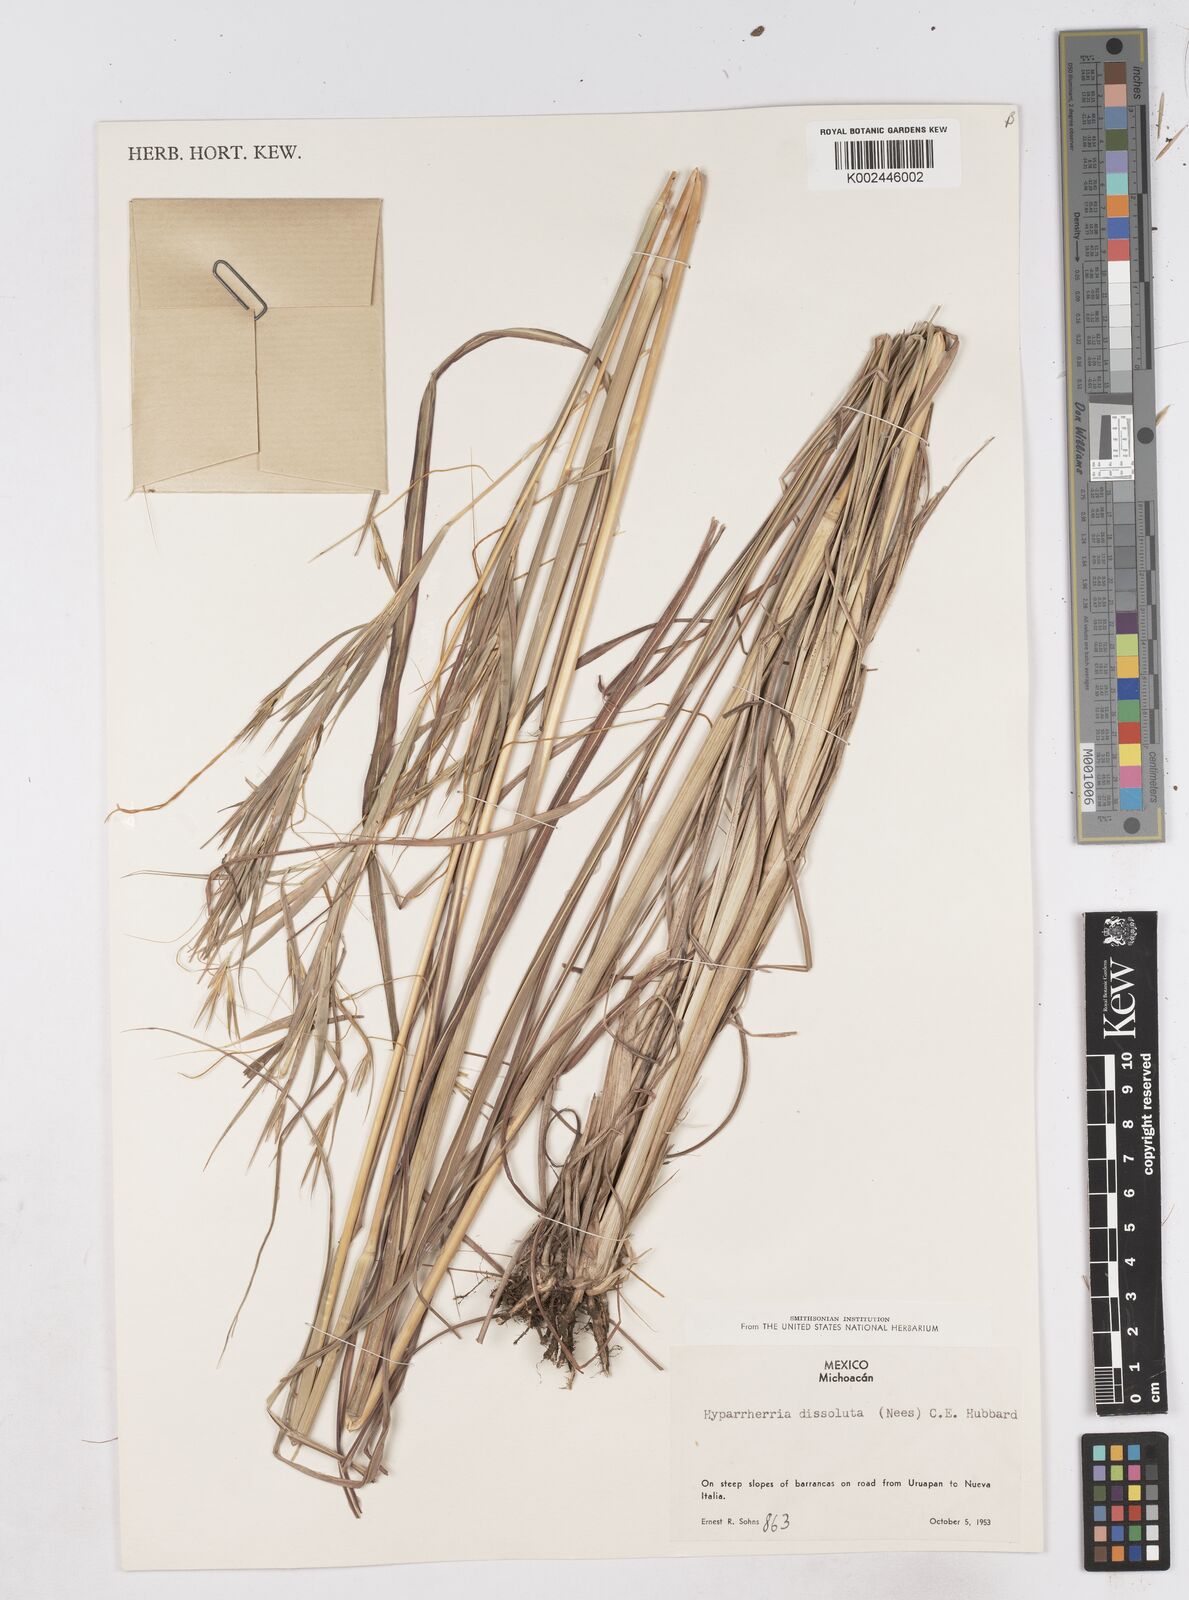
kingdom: Plantae
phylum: Tracheophyta
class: Liliopsida
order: Poales
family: Poaceae
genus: Hyperthelia
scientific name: Hyperthelia dissoluta
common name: Yellow thatching grass
